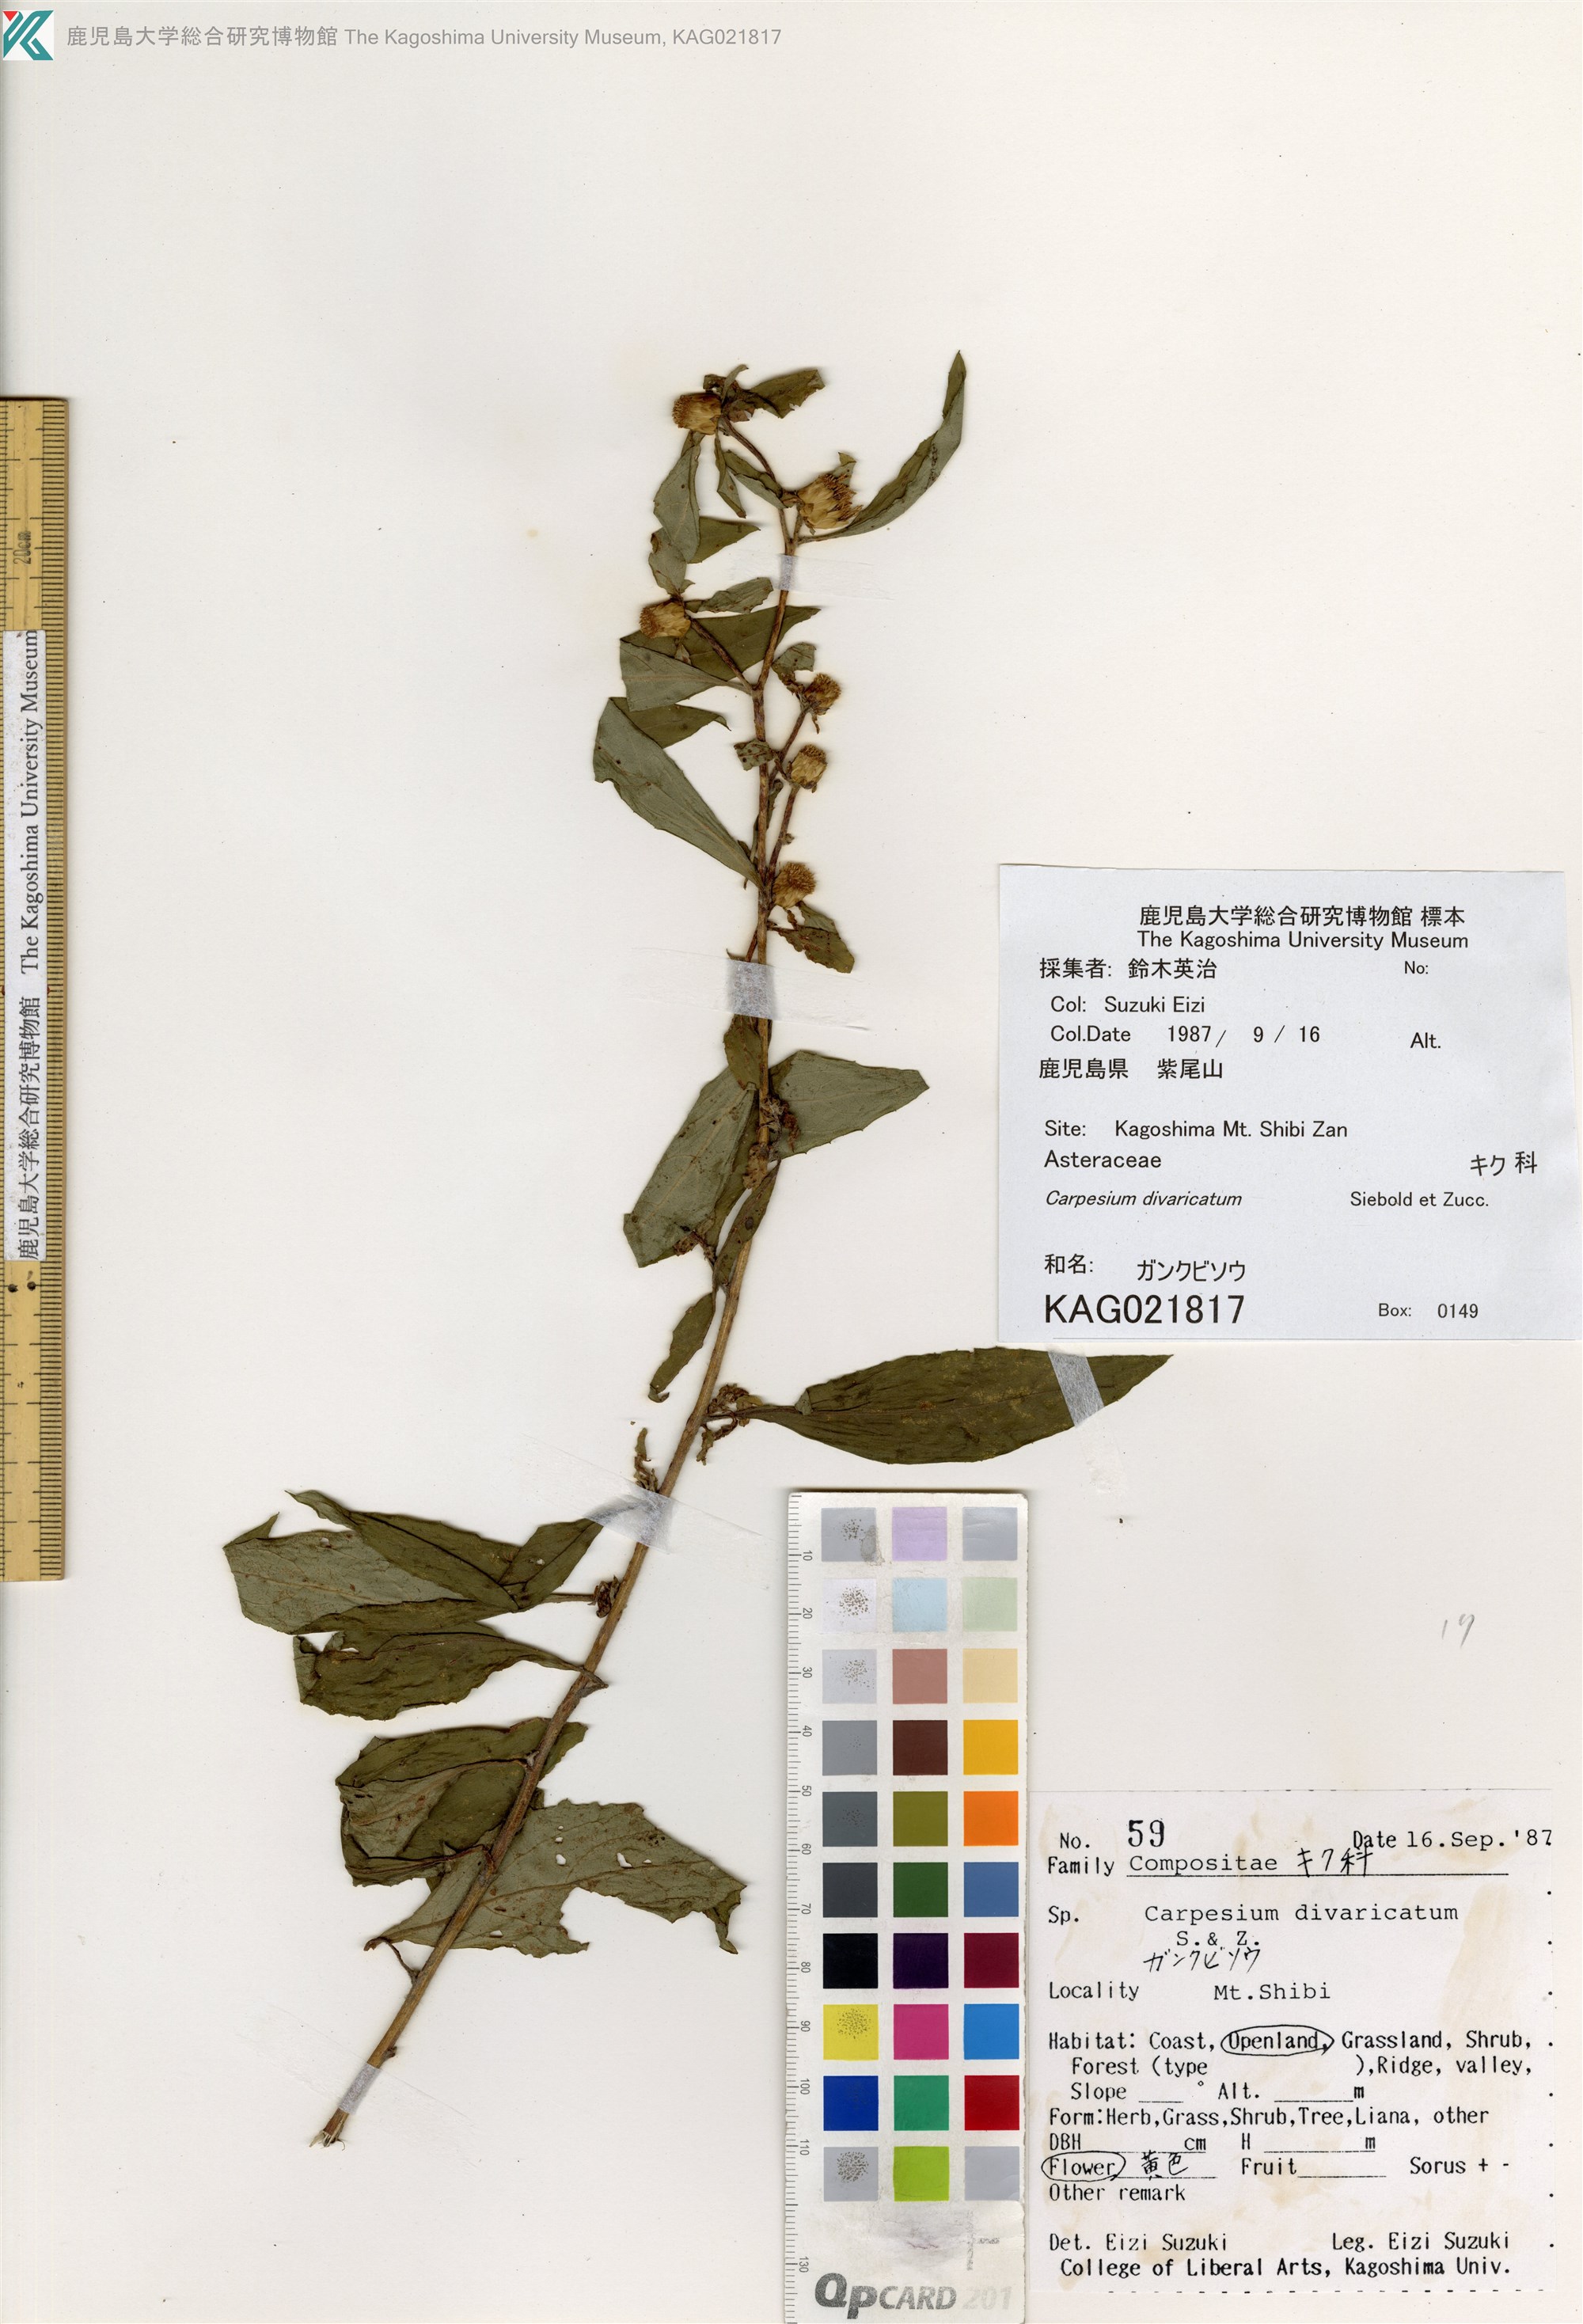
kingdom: Plantae
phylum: Tracheophyta
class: Magnoliopsida
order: Asterales
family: Asteraceae
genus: Carpesium
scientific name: Carpesium divaricatum
